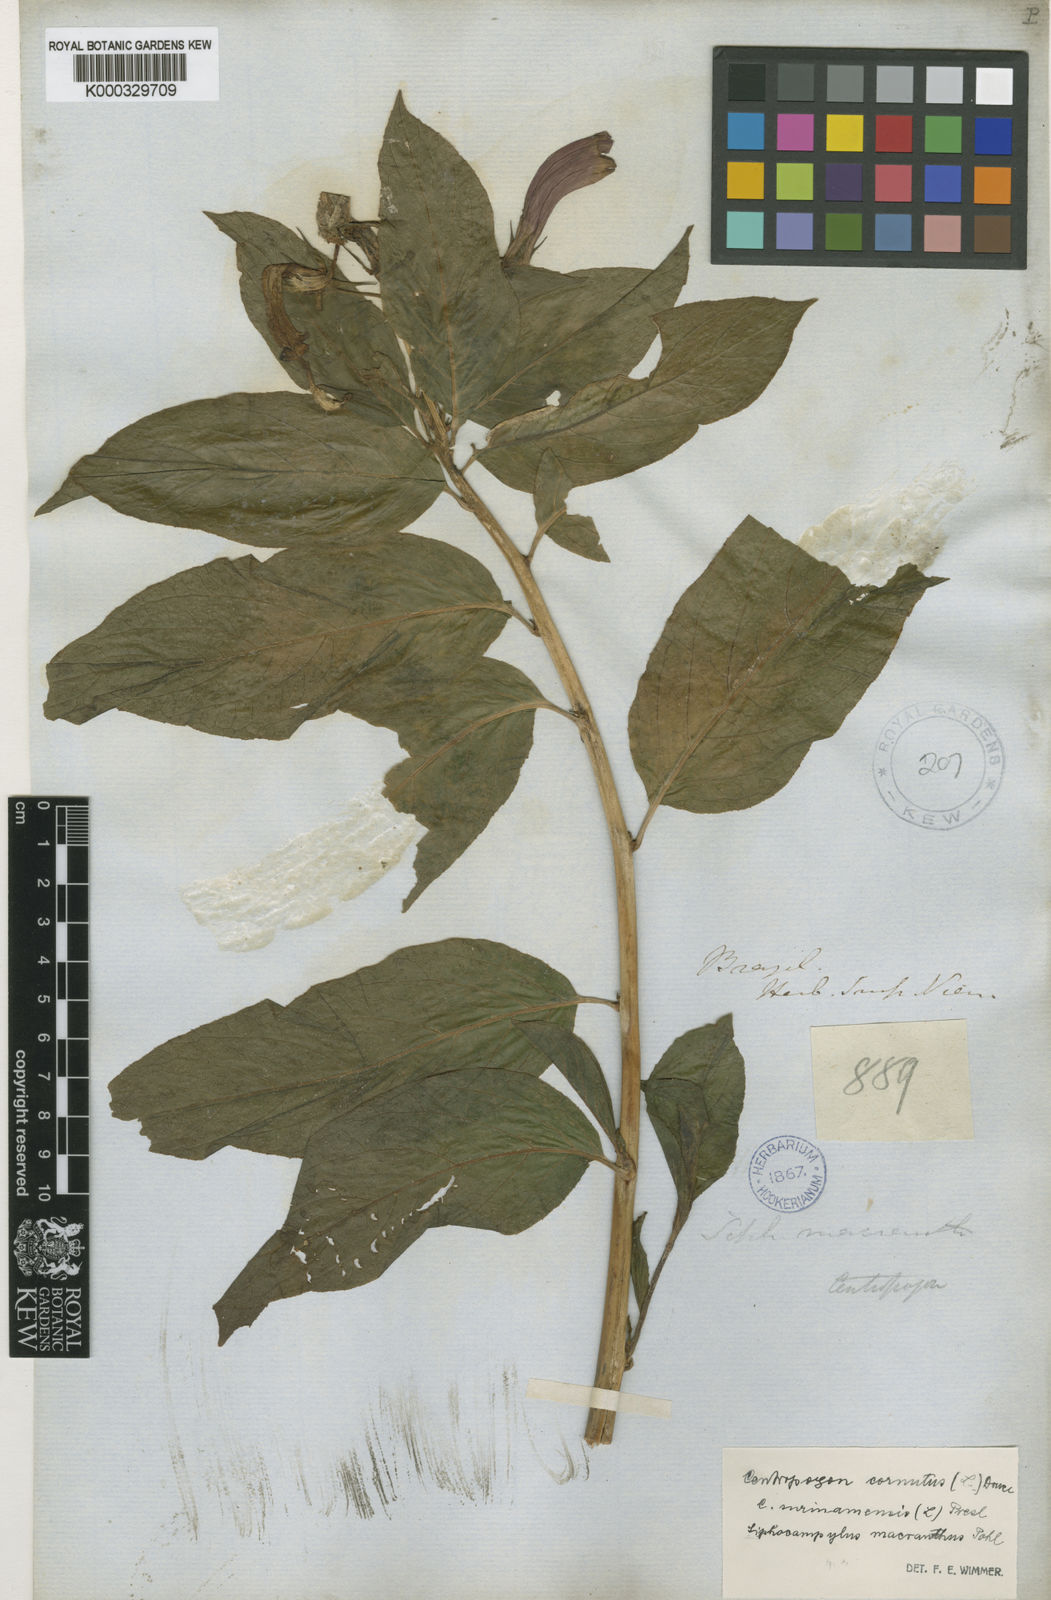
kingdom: Plantae
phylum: Tracheophyta
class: Magnoliopsida
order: Asterales
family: Campanulaceae
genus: Centropogon
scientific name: Centropogon cornutus
